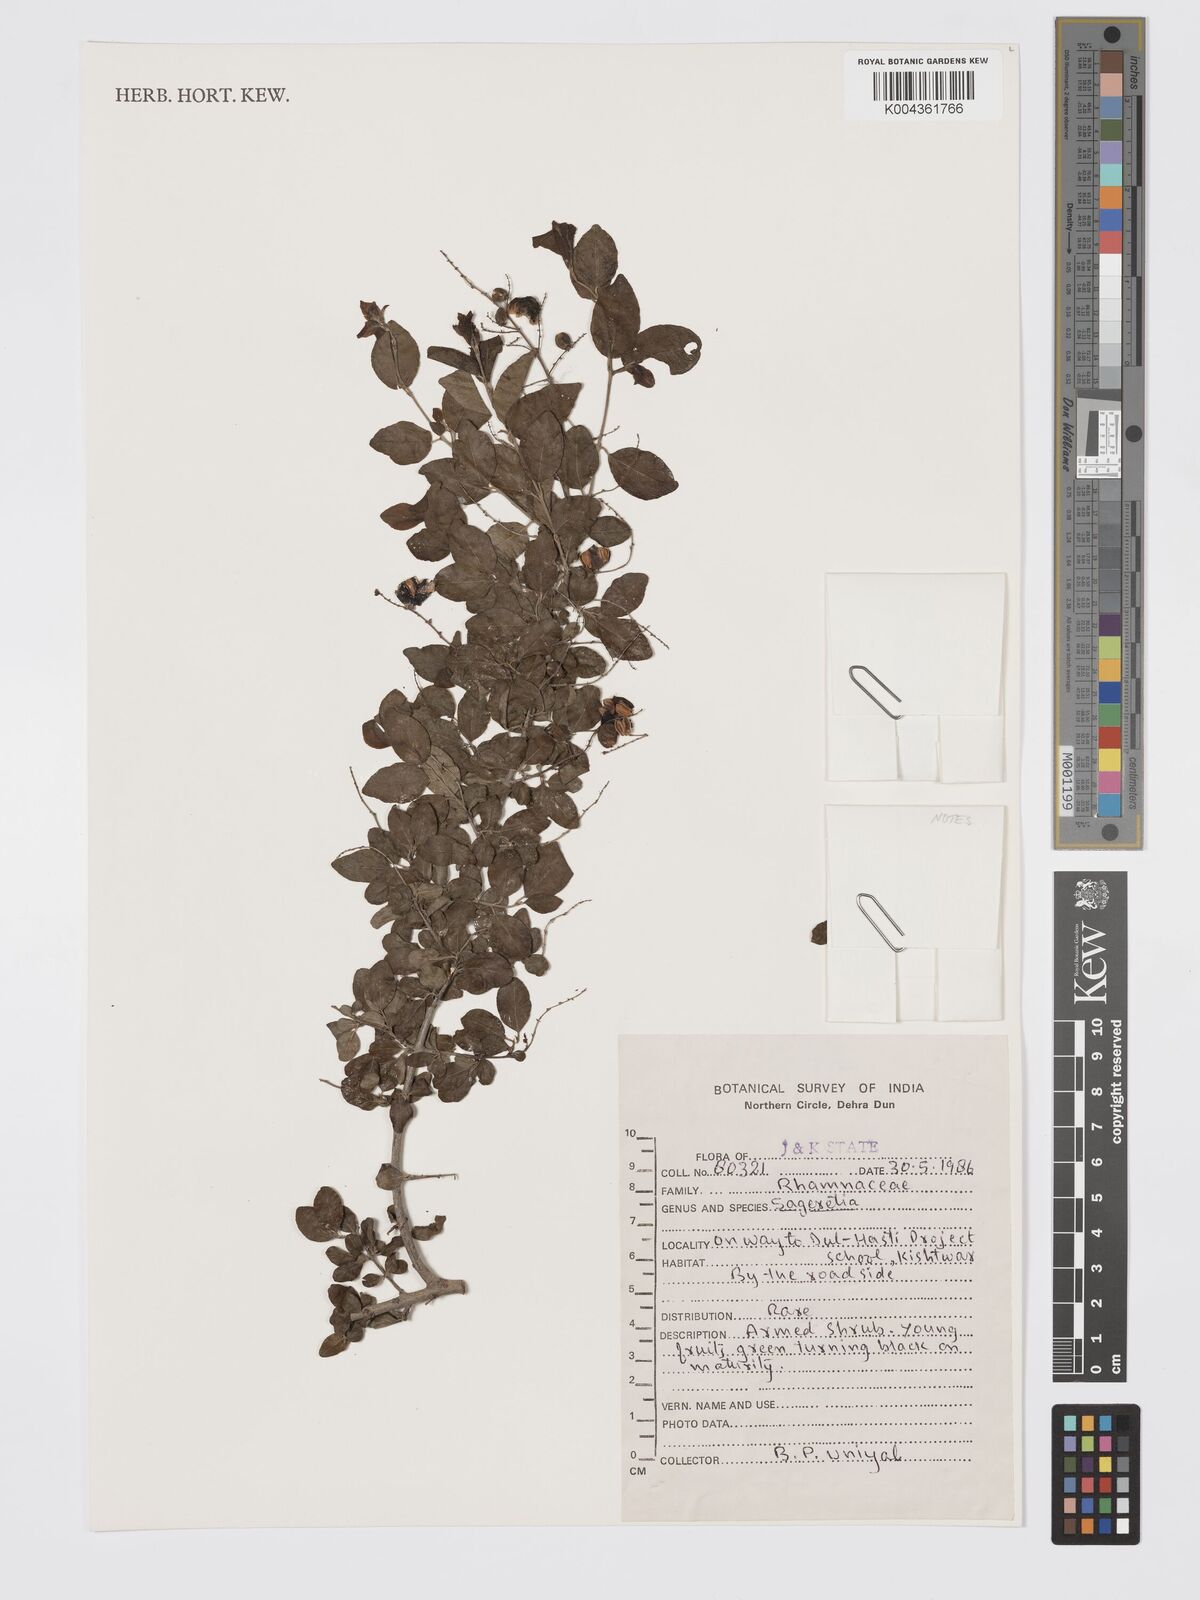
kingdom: Plantae
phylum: Tracheophyta
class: Magnoliopsida
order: Rosales
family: Rhamnaceae
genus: Sageretia
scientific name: Sageretia
